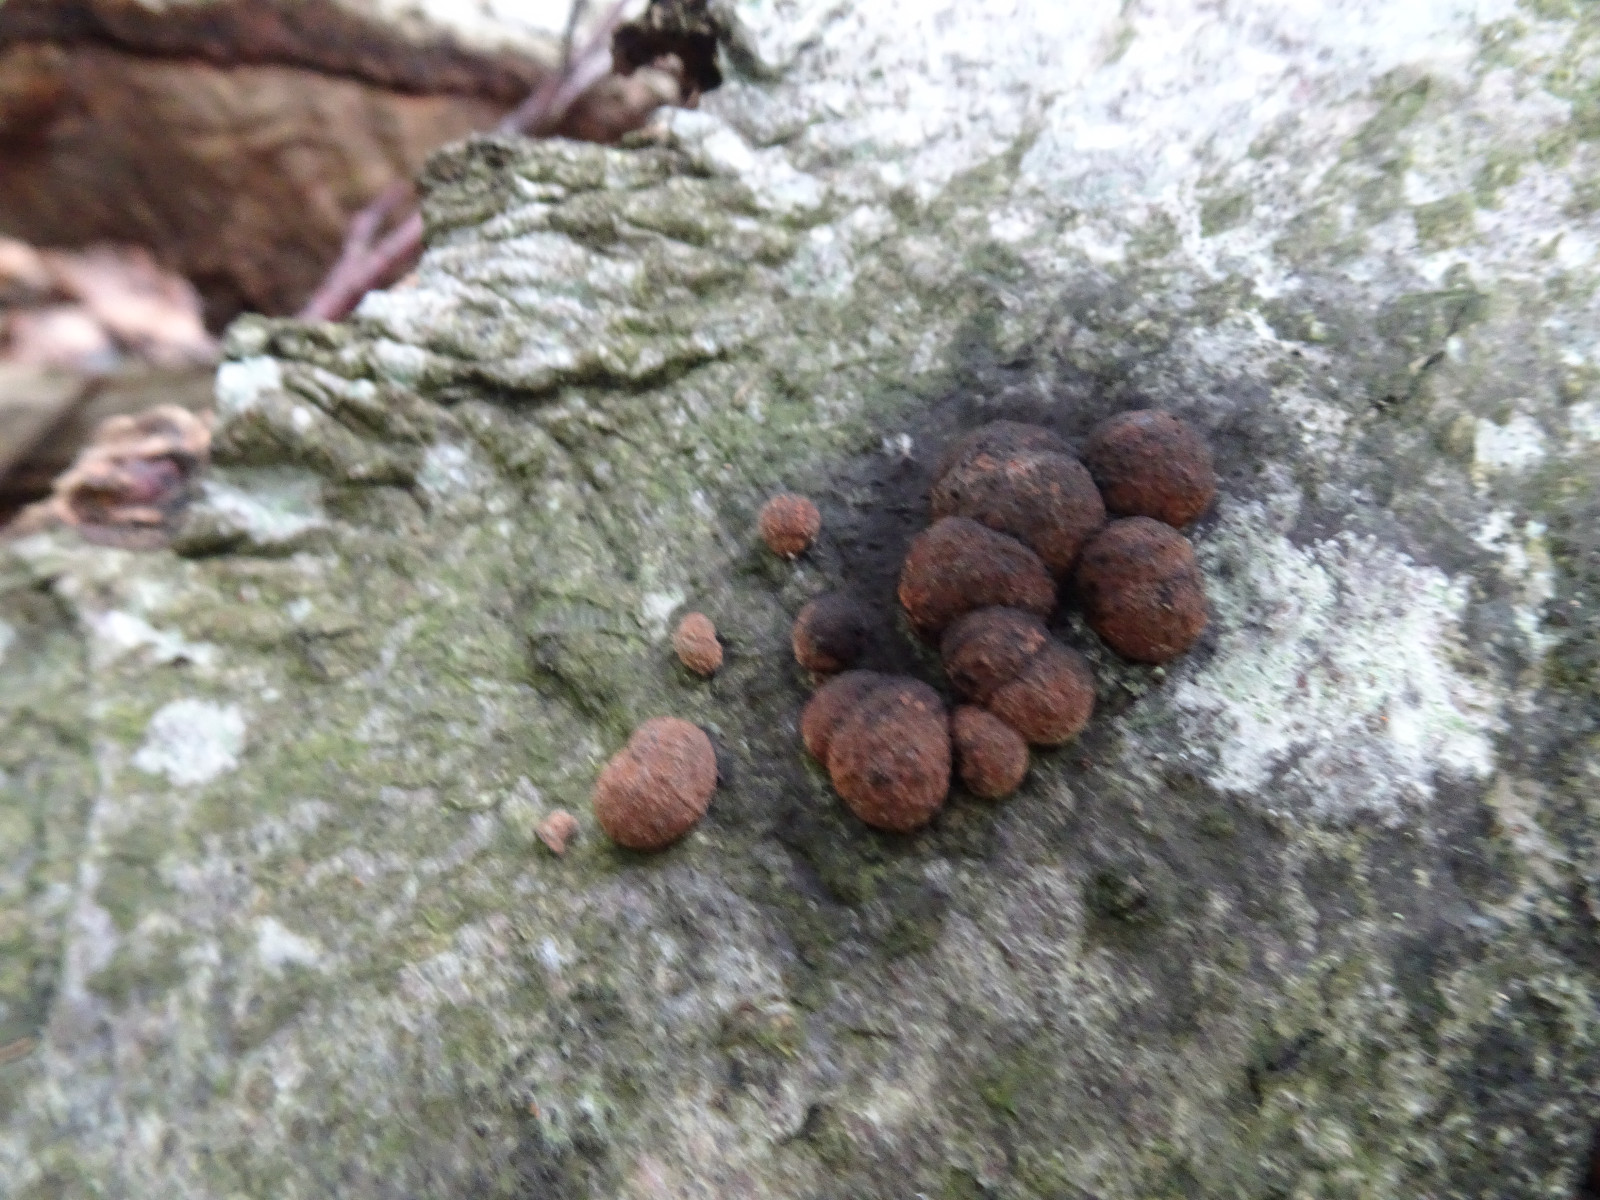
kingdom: Fungi
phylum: Ascomycota
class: Sordariomycetes
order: Xylariales
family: Hypoxylaceae
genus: Hypoxylon
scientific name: Hypoxylon fragiforme
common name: kuljordbær
